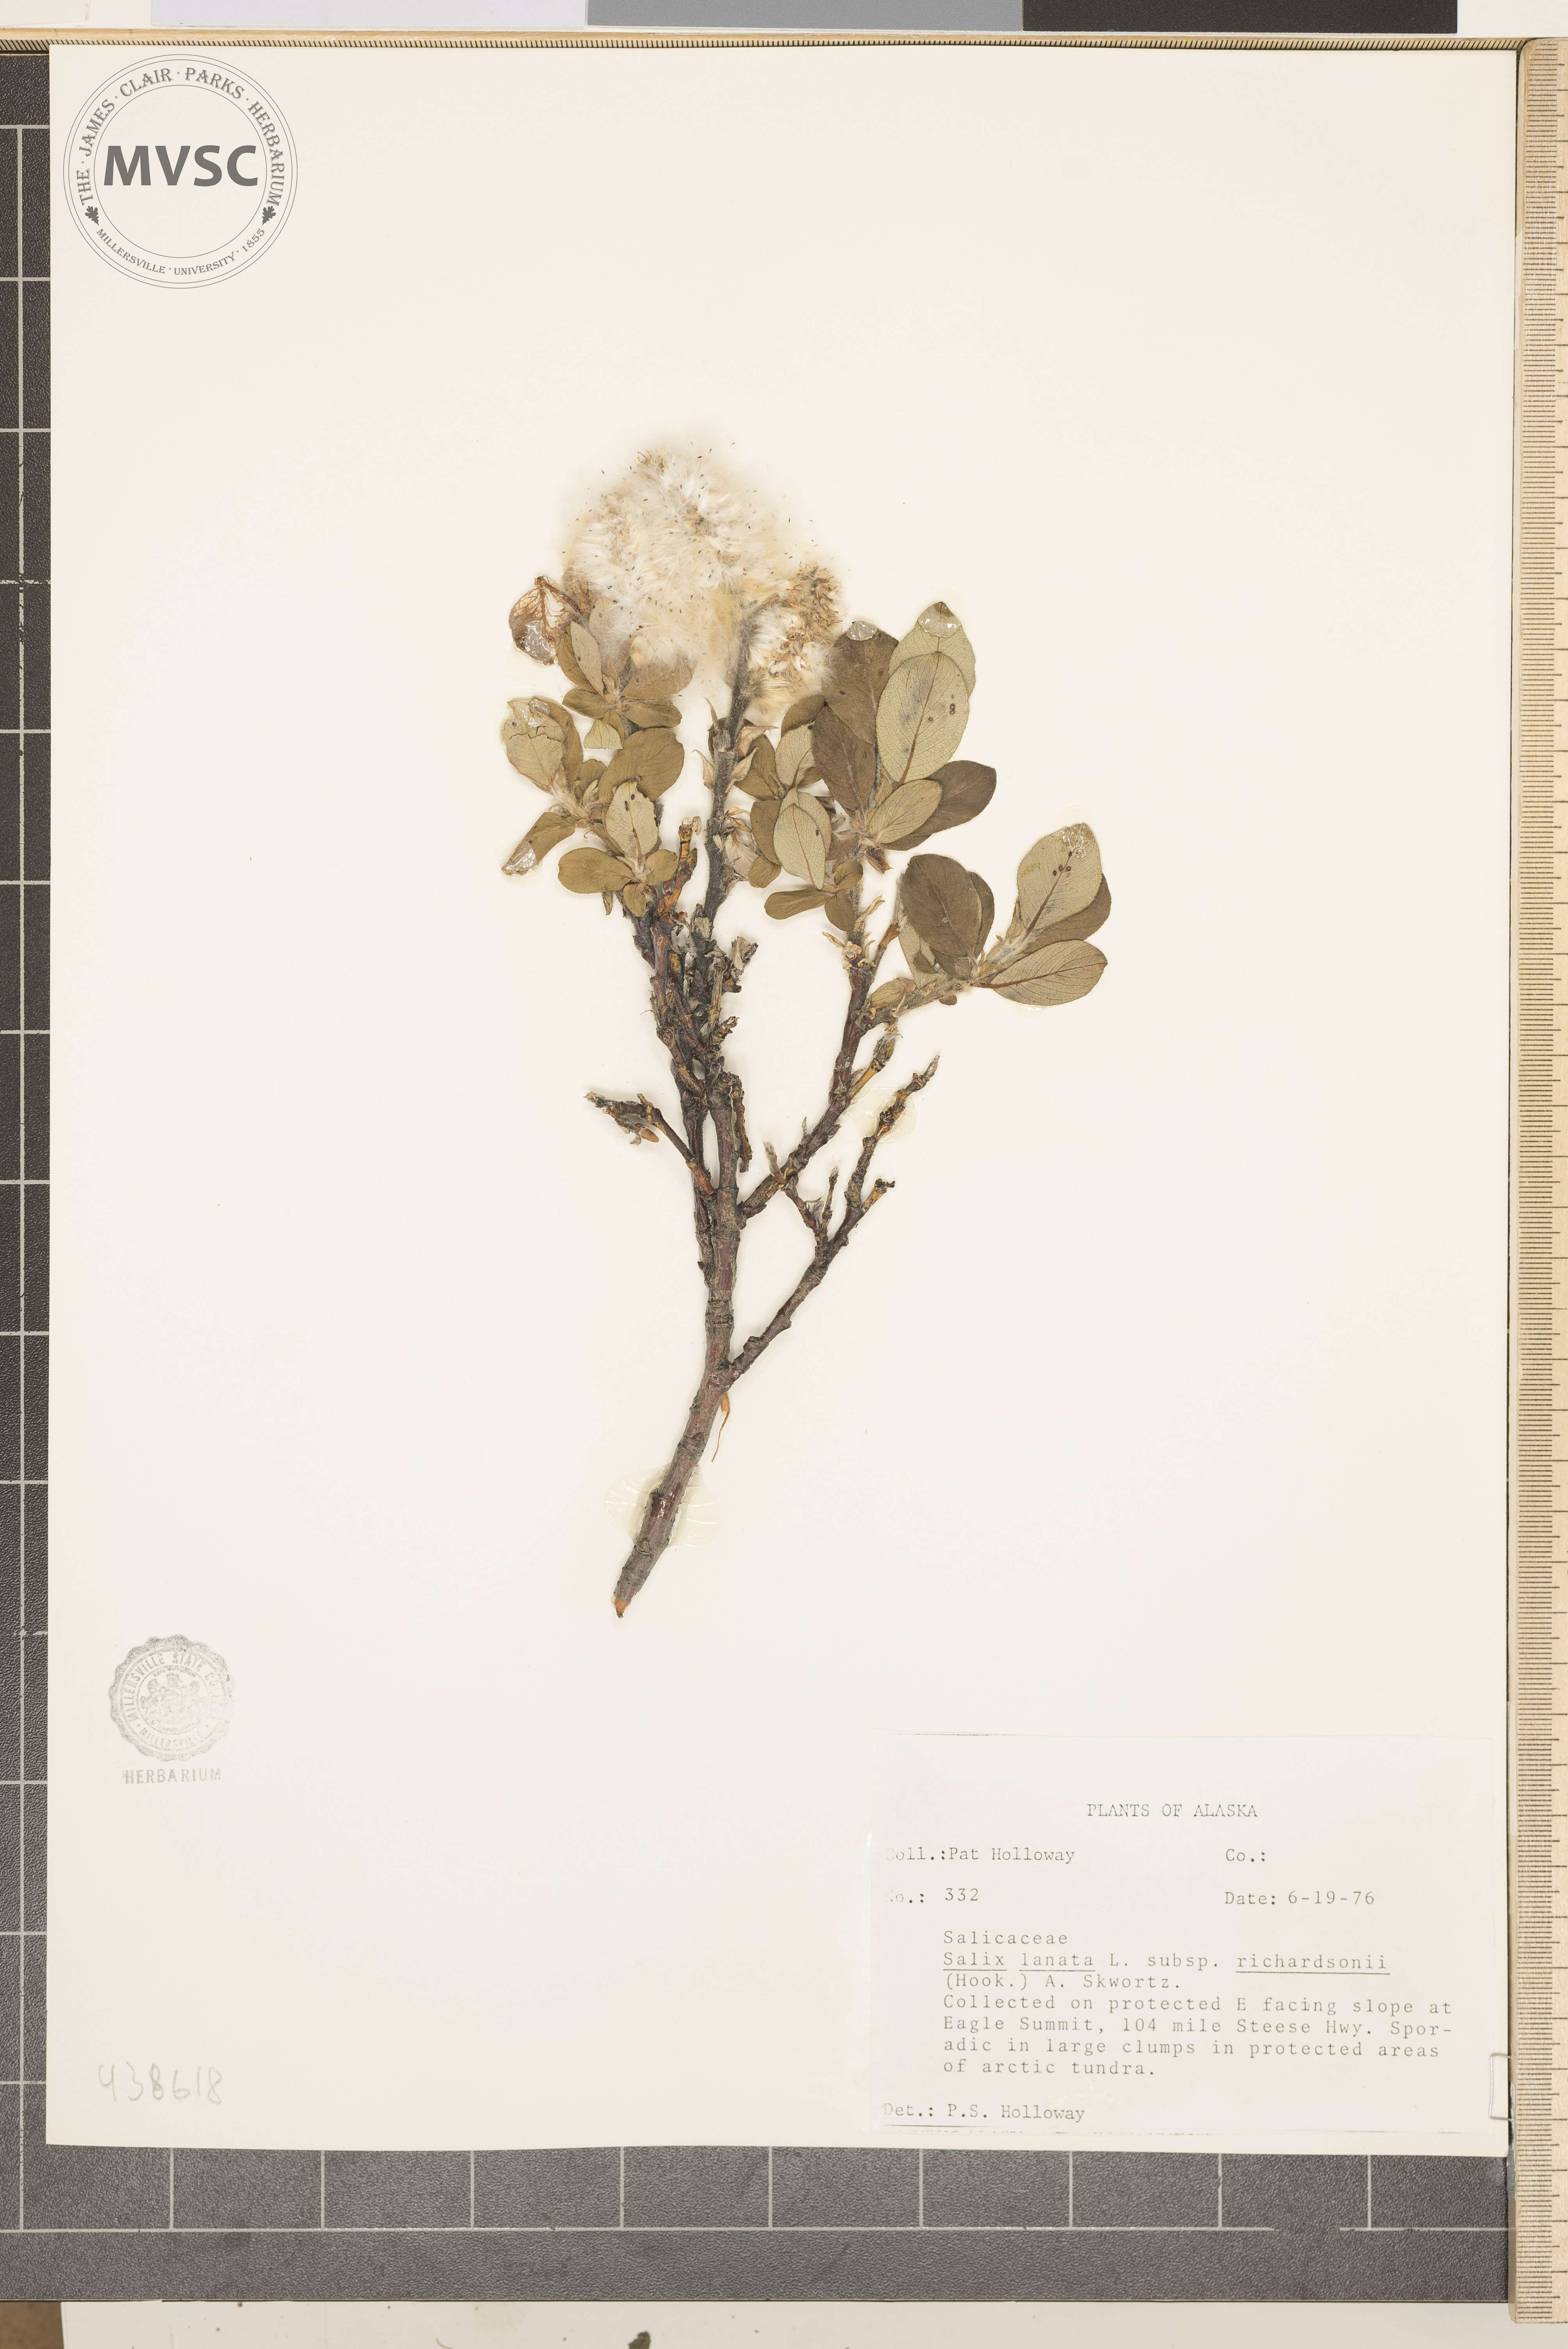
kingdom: Plantae
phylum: Tracheophyta
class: Magnoliopsida
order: Malpighiales
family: Salicaceae
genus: Salix
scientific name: Salix lanata
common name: Woolly willow
